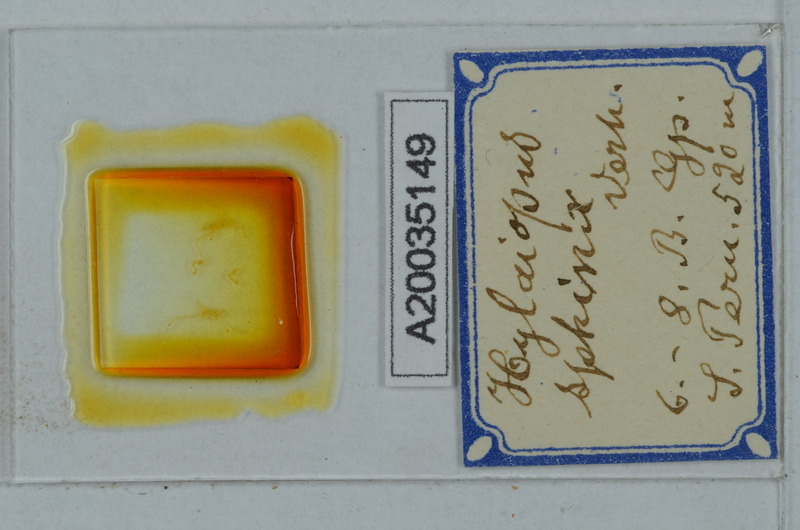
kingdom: Animalia
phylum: Arthropoda
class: Diplopoda
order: Polydesmida
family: Paradoxosomatidae
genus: Iulidesmus
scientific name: Iulidesmus sphinx
